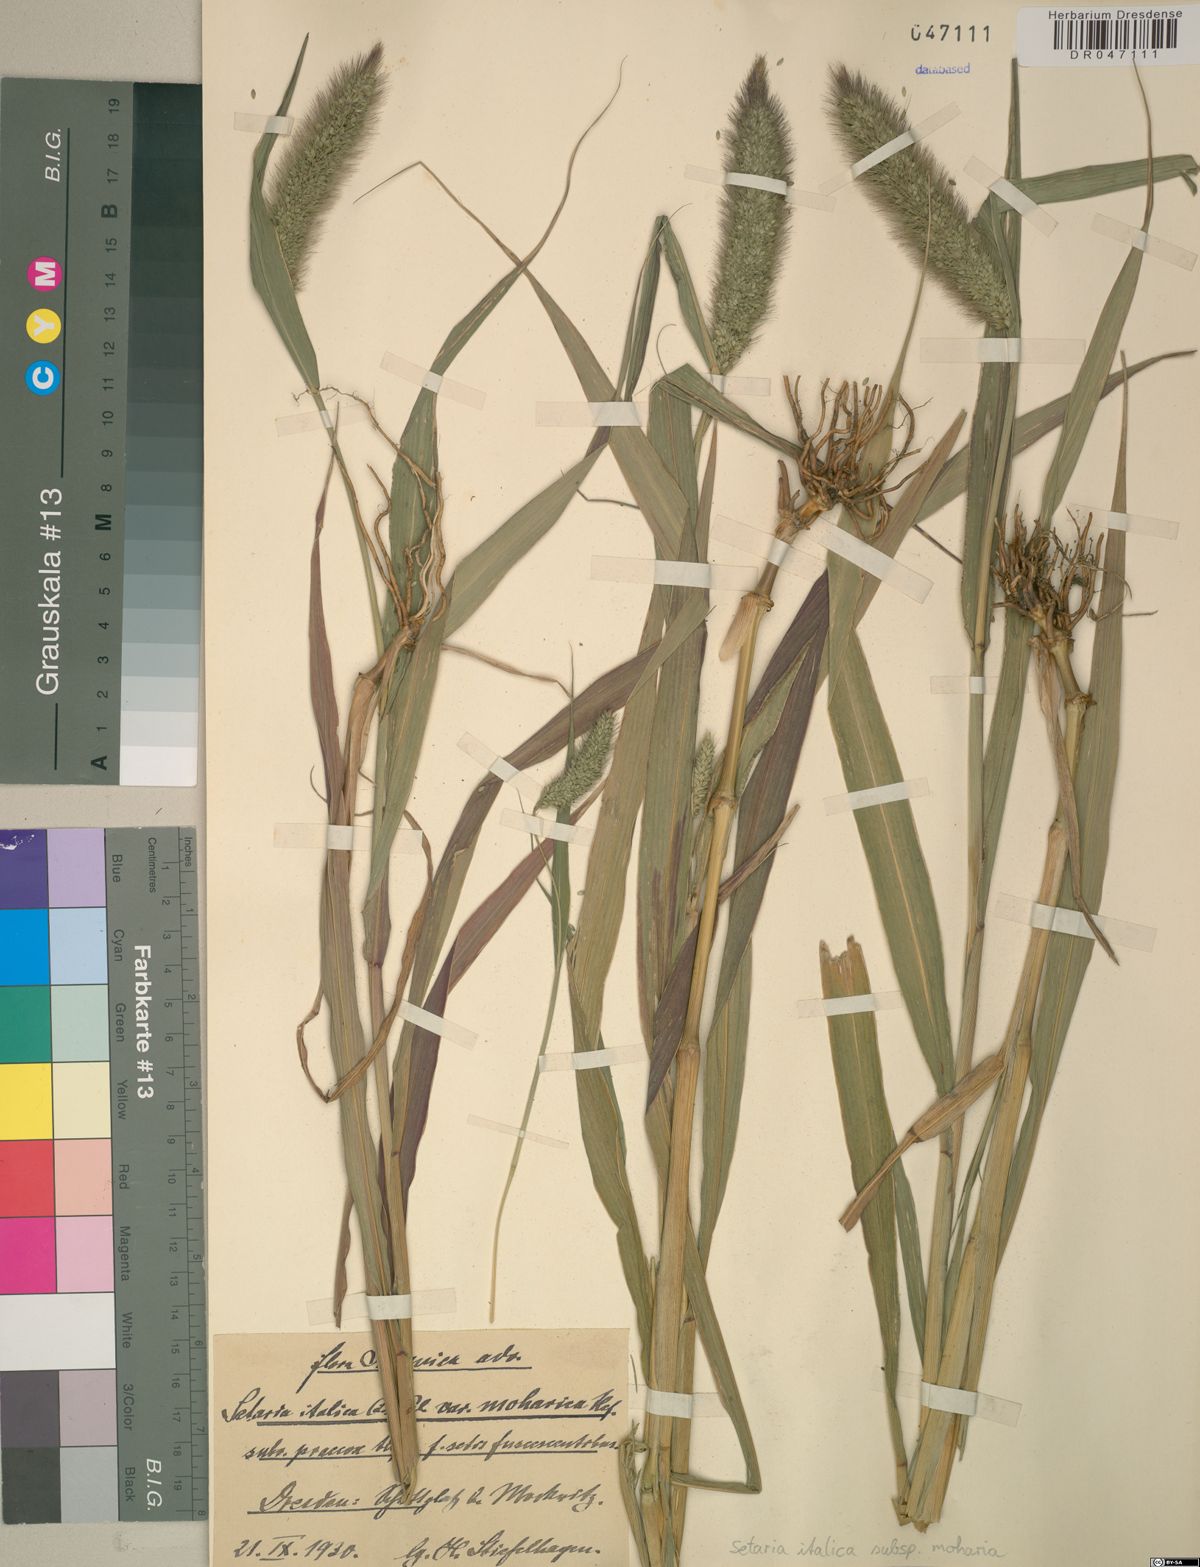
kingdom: Plantae
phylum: Tracheophyta
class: Liliopsida
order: Poales
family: Poaceae
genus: Setaria
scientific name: Setaria italica
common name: Foxtail bristle-grass
